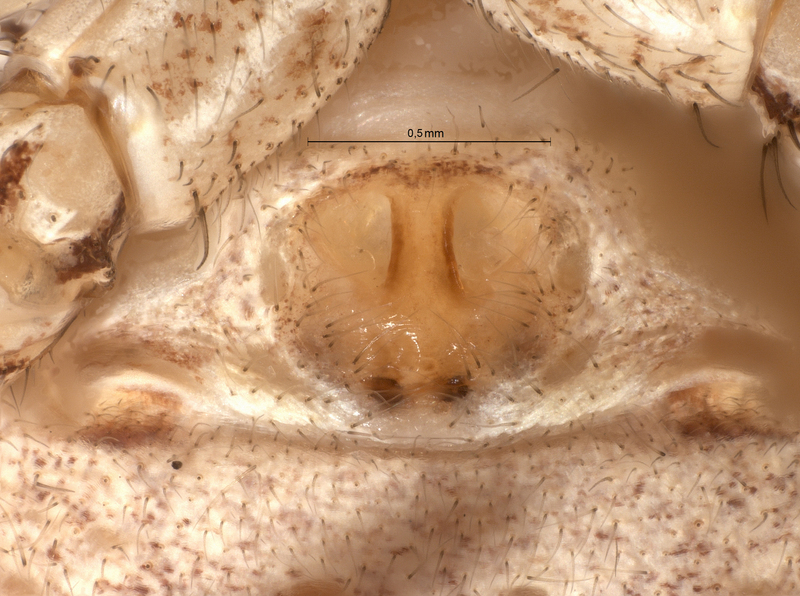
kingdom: Animalia
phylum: Arthropoda
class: Arachnida
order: Araneae
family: Thomisidae
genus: Xysticus
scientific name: Xysticus cristatus
